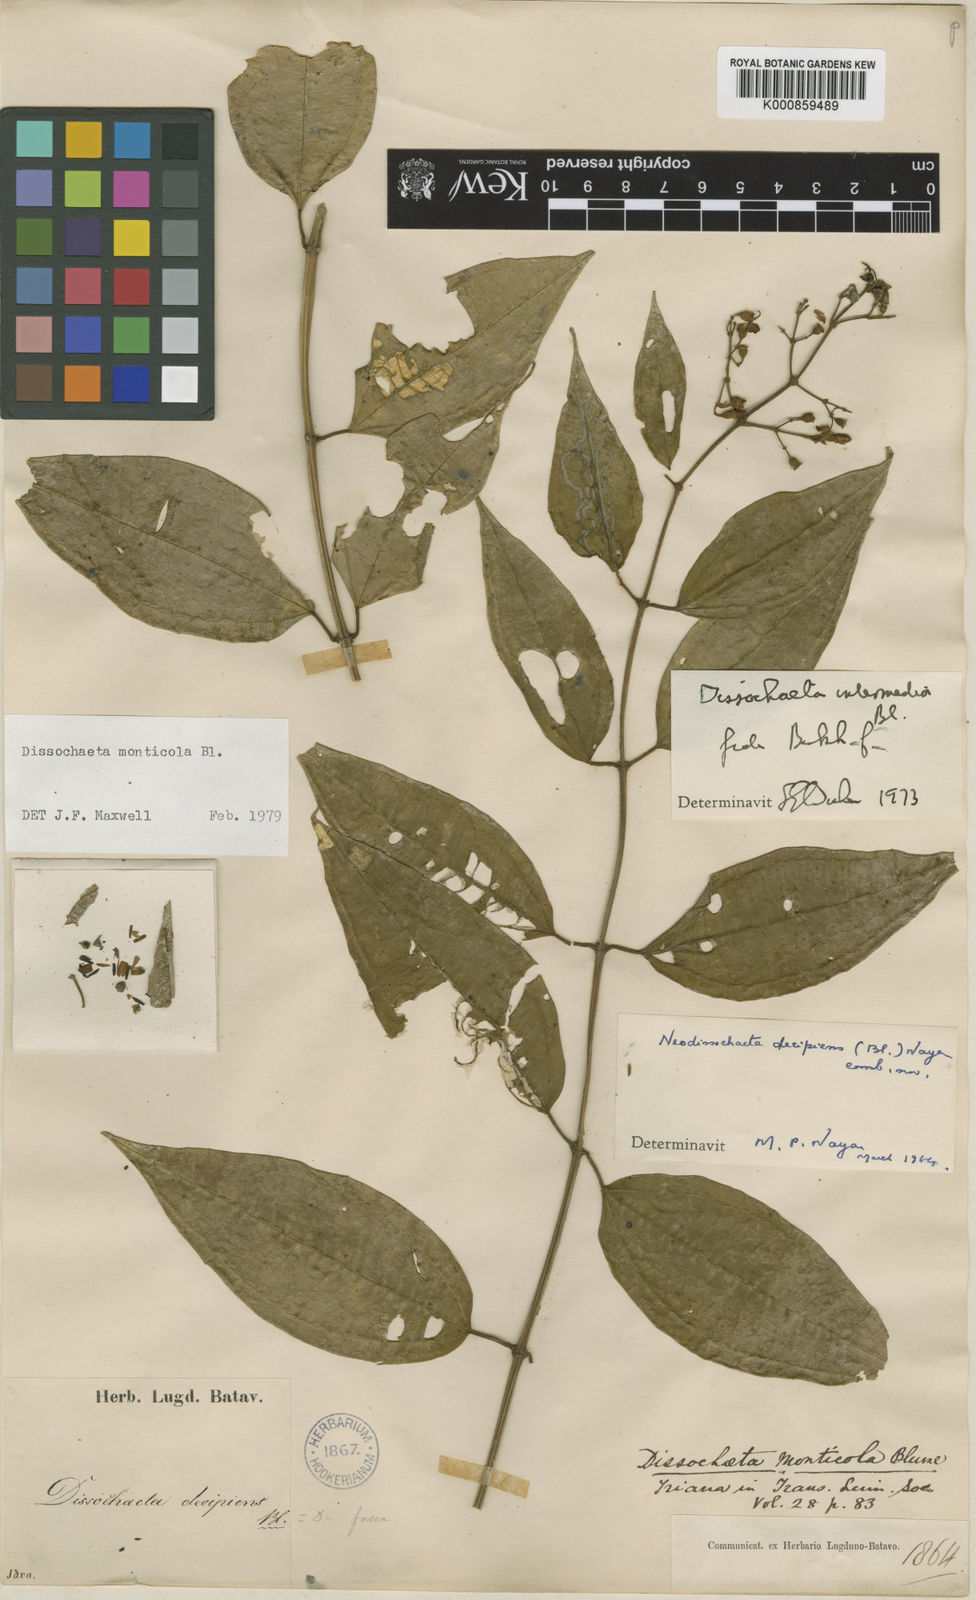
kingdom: Plantae
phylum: Tracheophyta
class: Magnoliopsida
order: Myrtales
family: Melastomataceae
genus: Dissochaeta
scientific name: Dissochaeta intermedia
